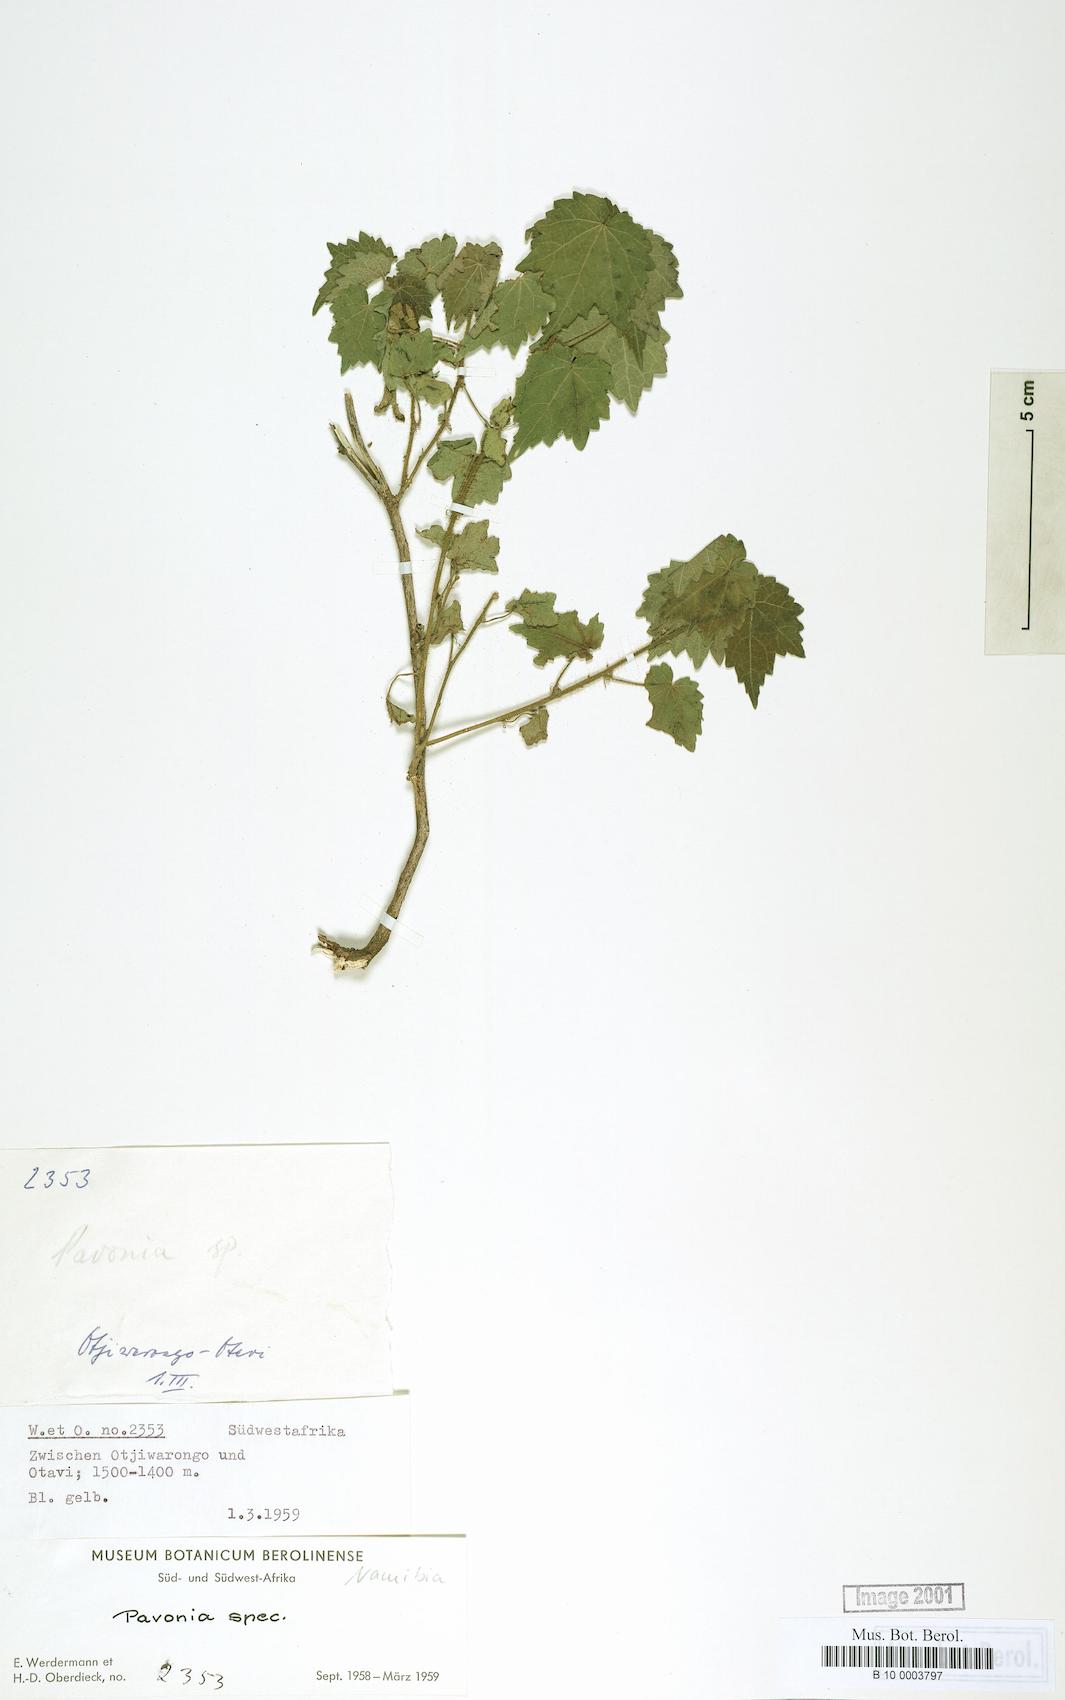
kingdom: Plantae
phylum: Tracheophyta
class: Magnoliopsida
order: Malvales
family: Malvaceae
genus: Pavonia
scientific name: Pavonia
